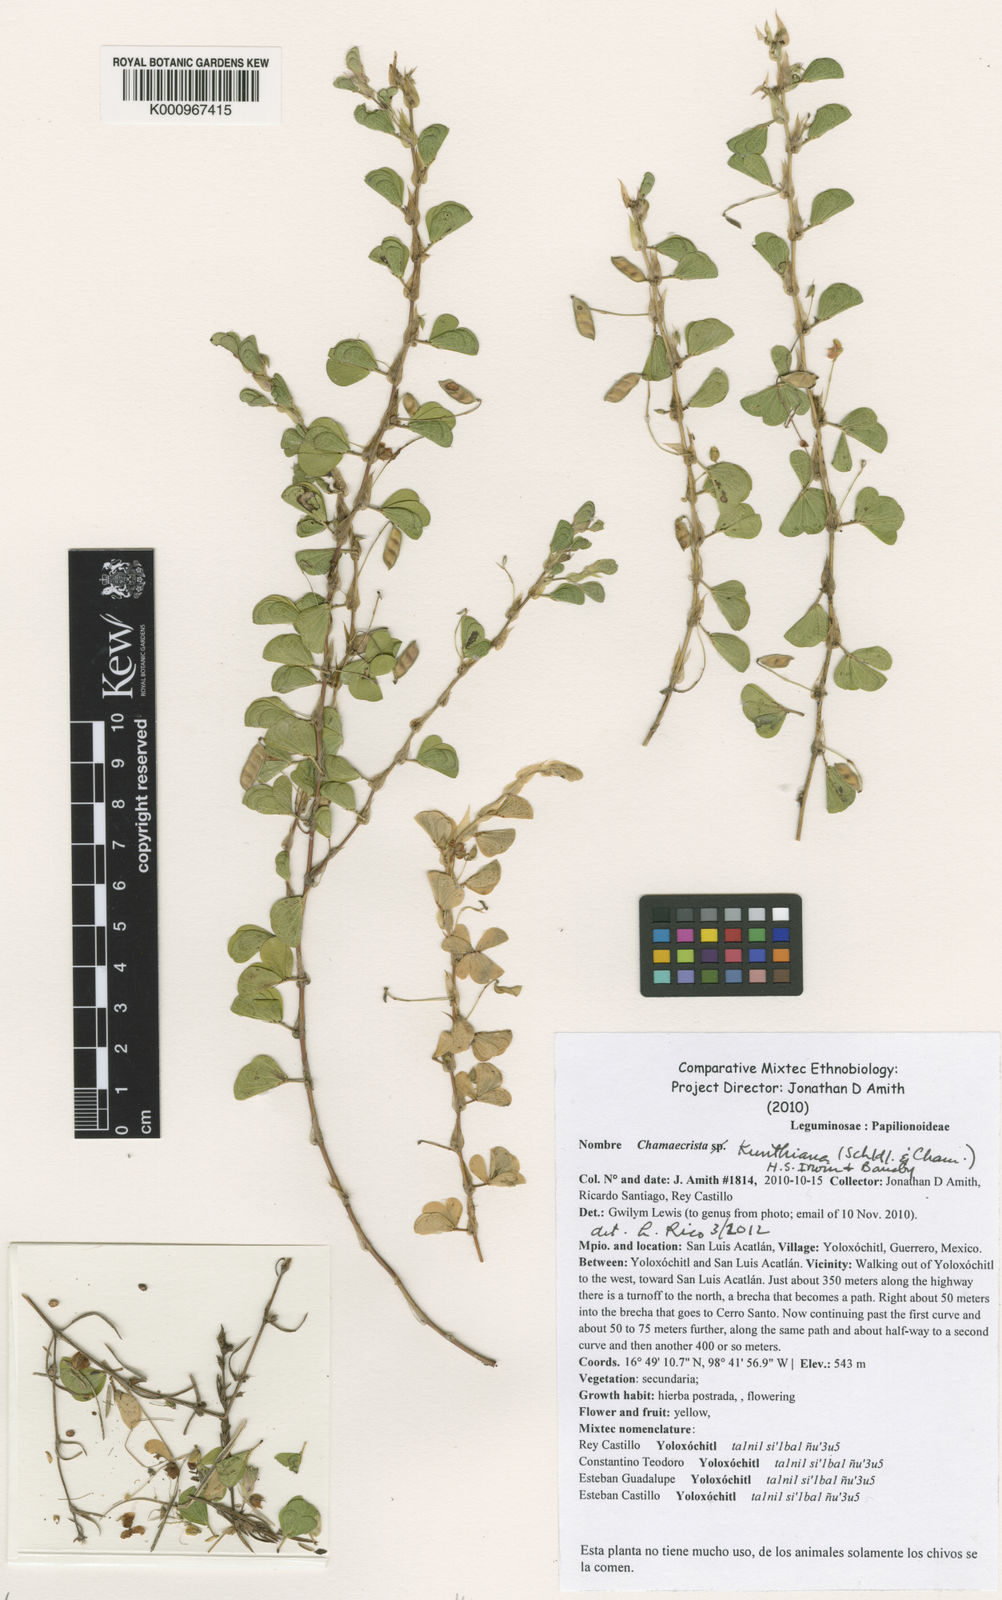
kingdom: Plantae
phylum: Tracheophyta
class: Magnoliopsida
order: Fabales
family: Fabaceae
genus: Chamaecrista
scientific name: Chamaecrista kunthiana
